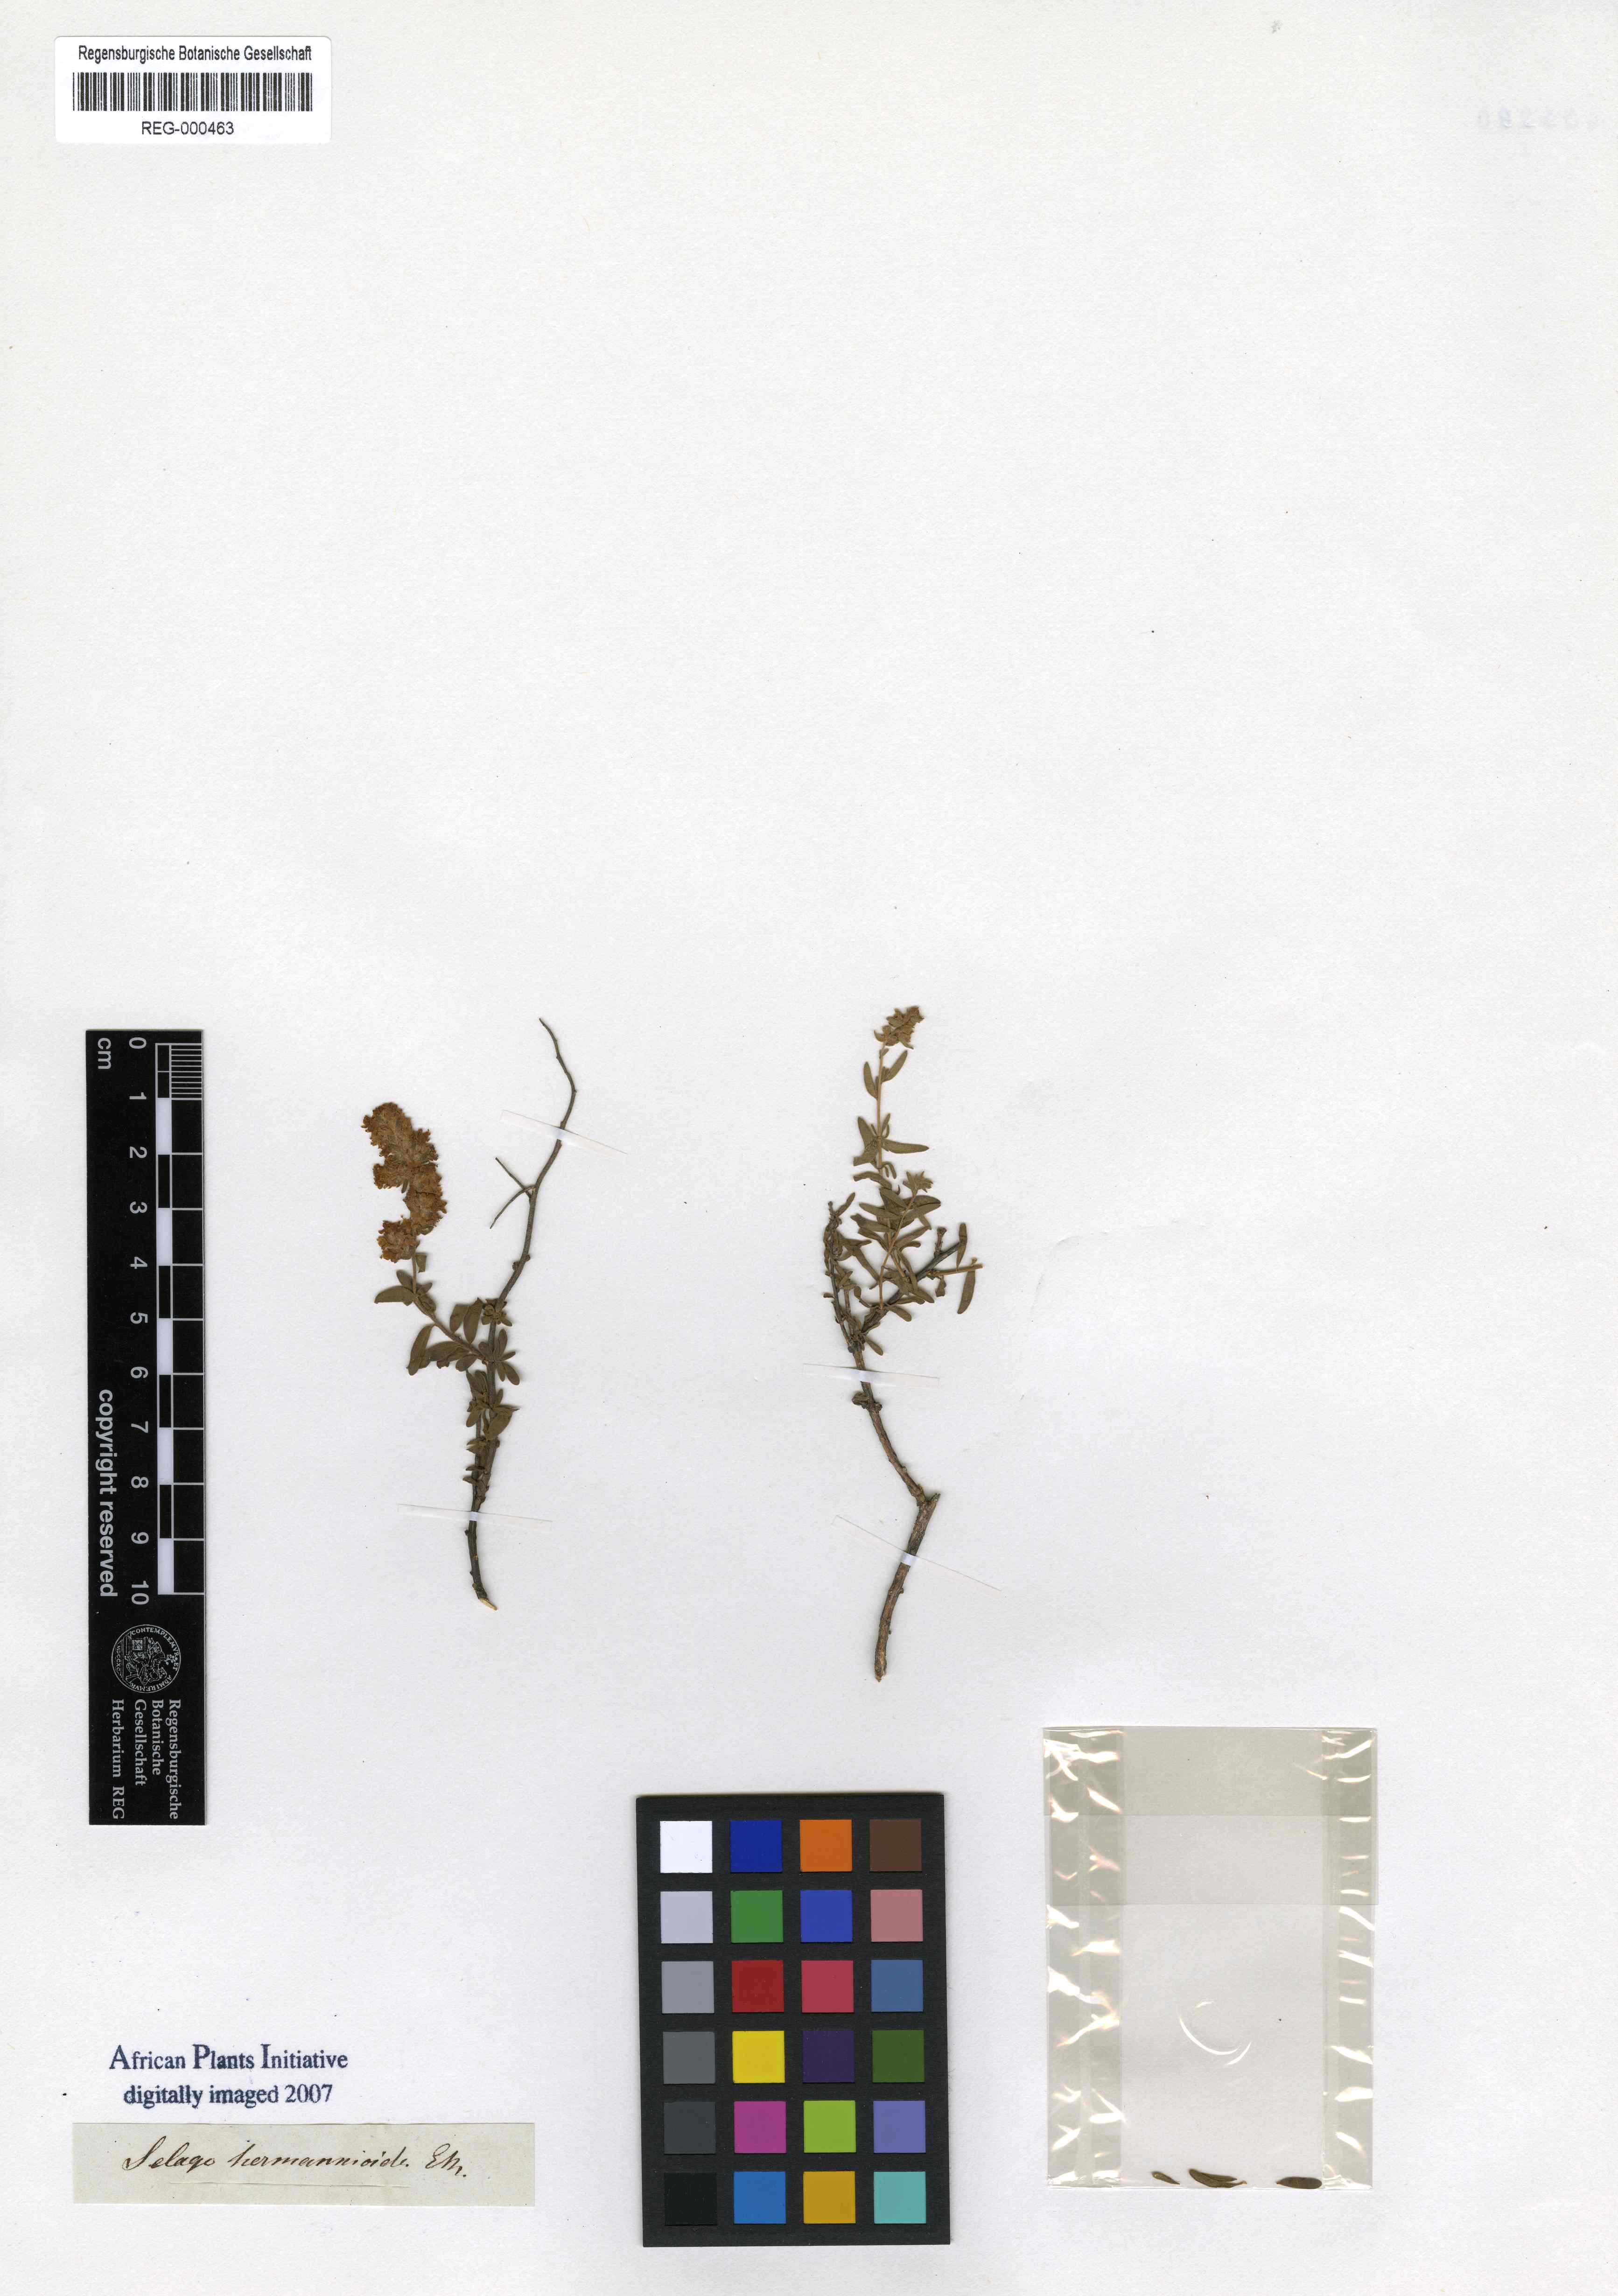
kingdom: Plantae
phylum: Tracheophyta
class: Magnoliopsida
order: Lamiales
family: Scrophulariaceae
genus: Selago
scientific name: Selago hermannioides
